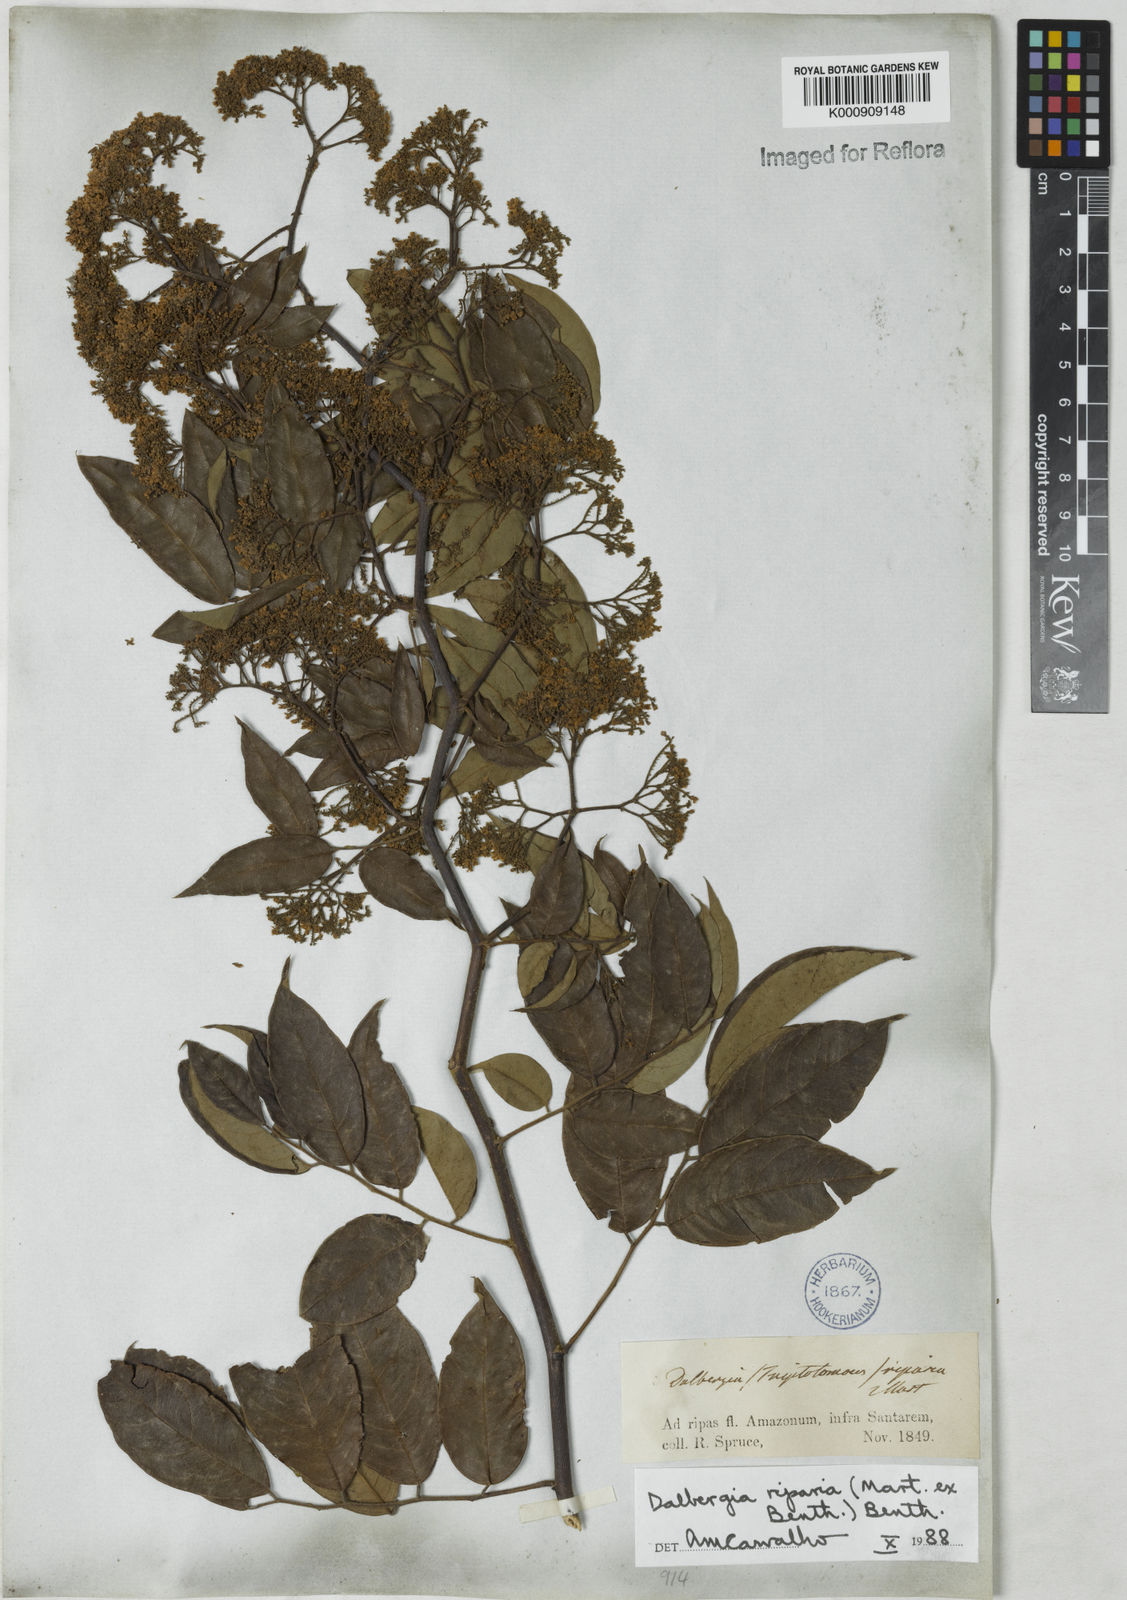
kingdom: Plantae
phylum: Tracheophyta
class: Magnoliopsida
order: Fabales
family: Fabaceae
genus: Dalbergia
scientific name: Dalbergia riparia
